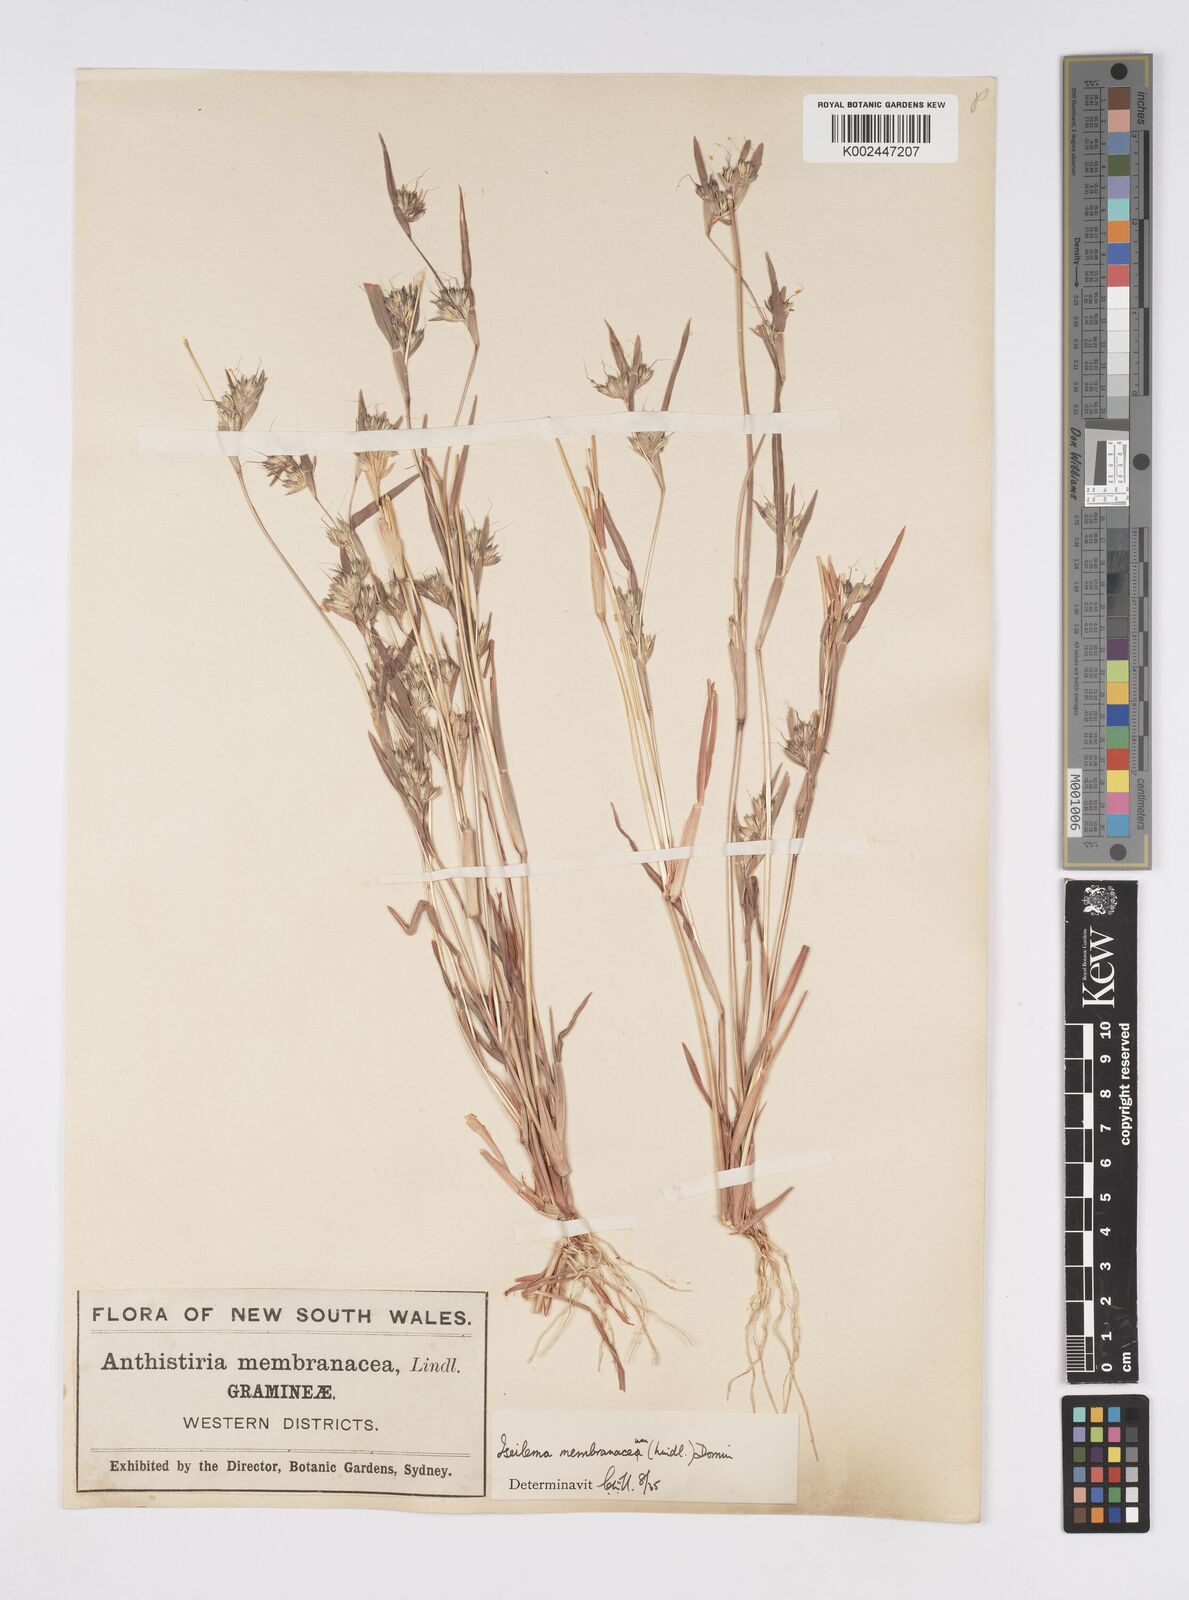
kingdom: Plantae
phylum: Tracheophyta
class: Liliopsida
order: Poales
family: Poaceae
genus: Iseilema
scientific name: Iseilema membranaceum
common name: Small flinders grass
